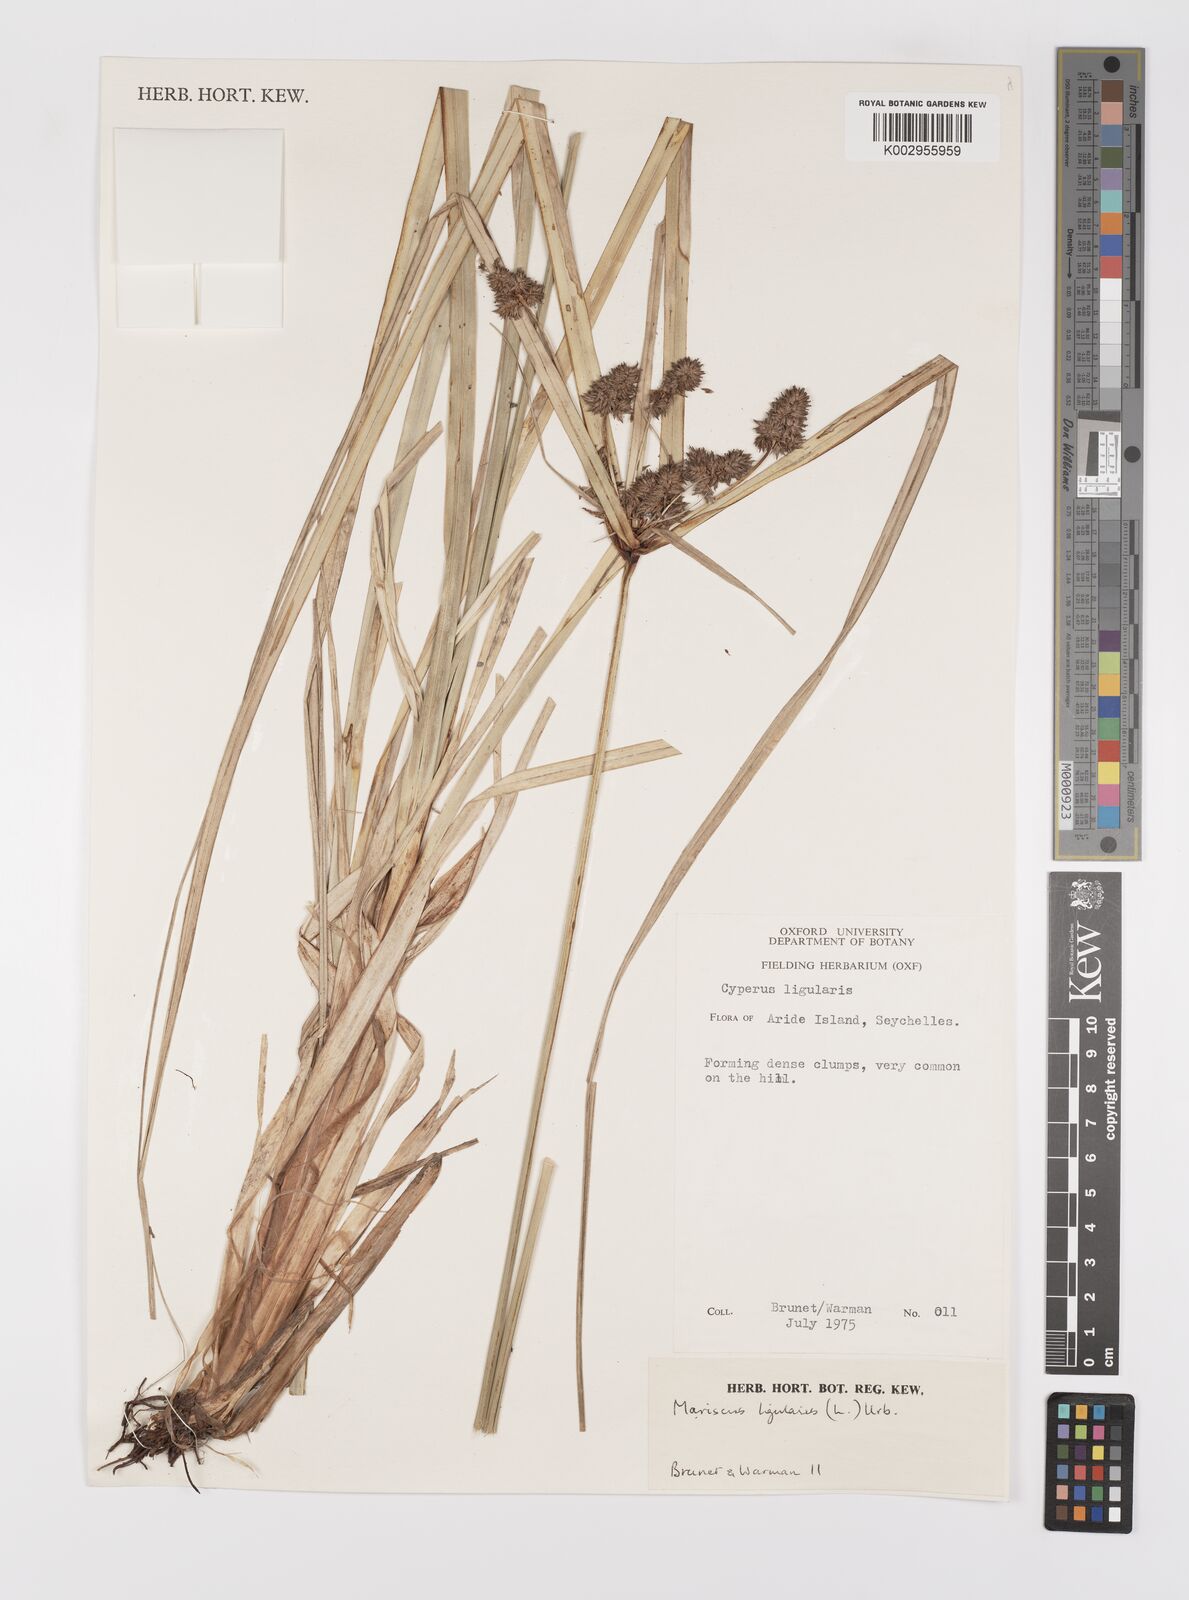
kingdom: Plantae
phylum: Tracheophyta
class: Liliopsida
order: Poales
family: Cyperaceae
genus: Cyperus
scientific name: Cyperus ligularis
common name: Swamp flat sedge
